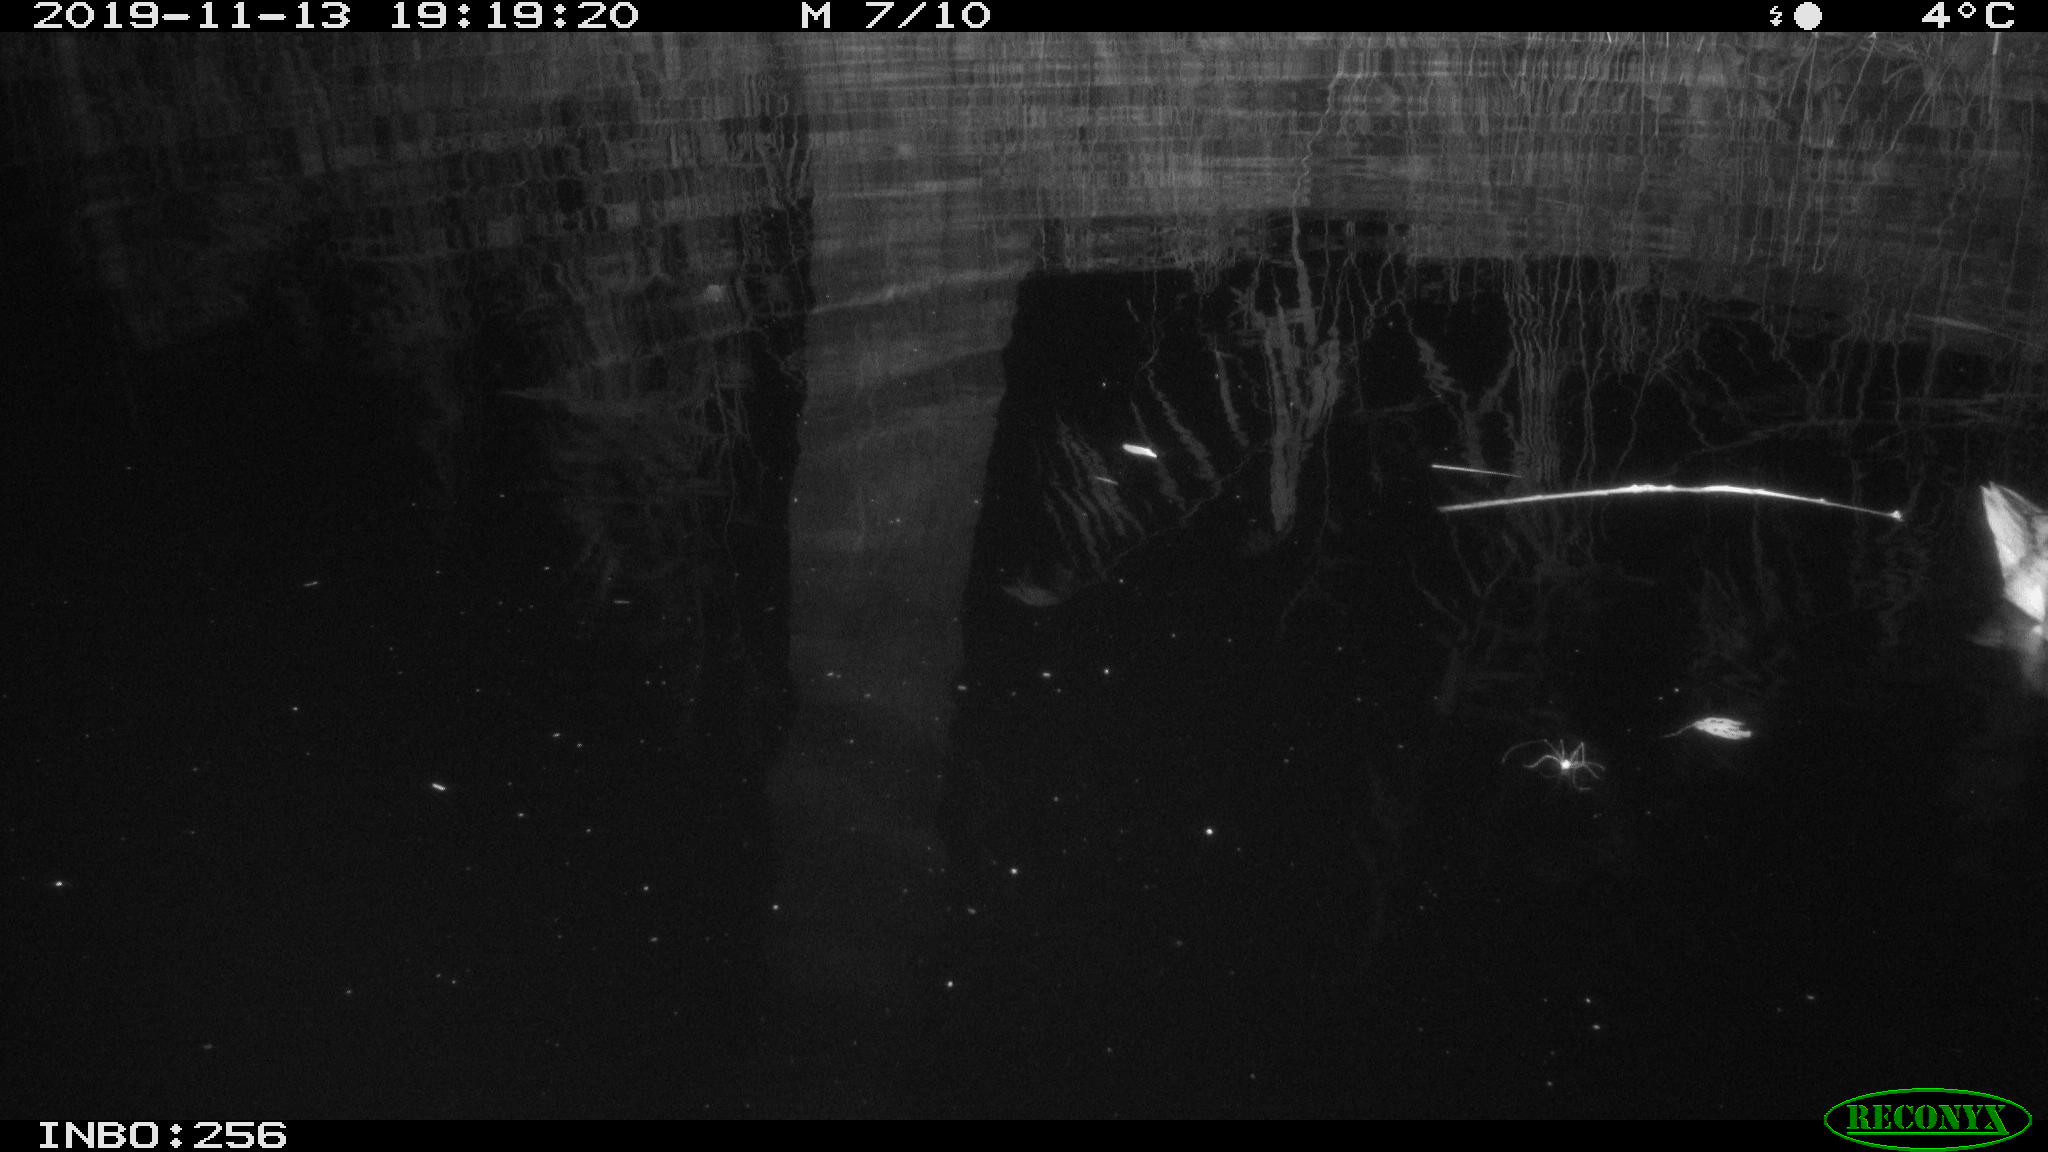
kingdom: Animalia
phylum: Chordata
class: Aves
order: Anseriformes
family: Anatidae
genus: Anas
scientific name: Anas platyrhynchos
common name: Mallard
